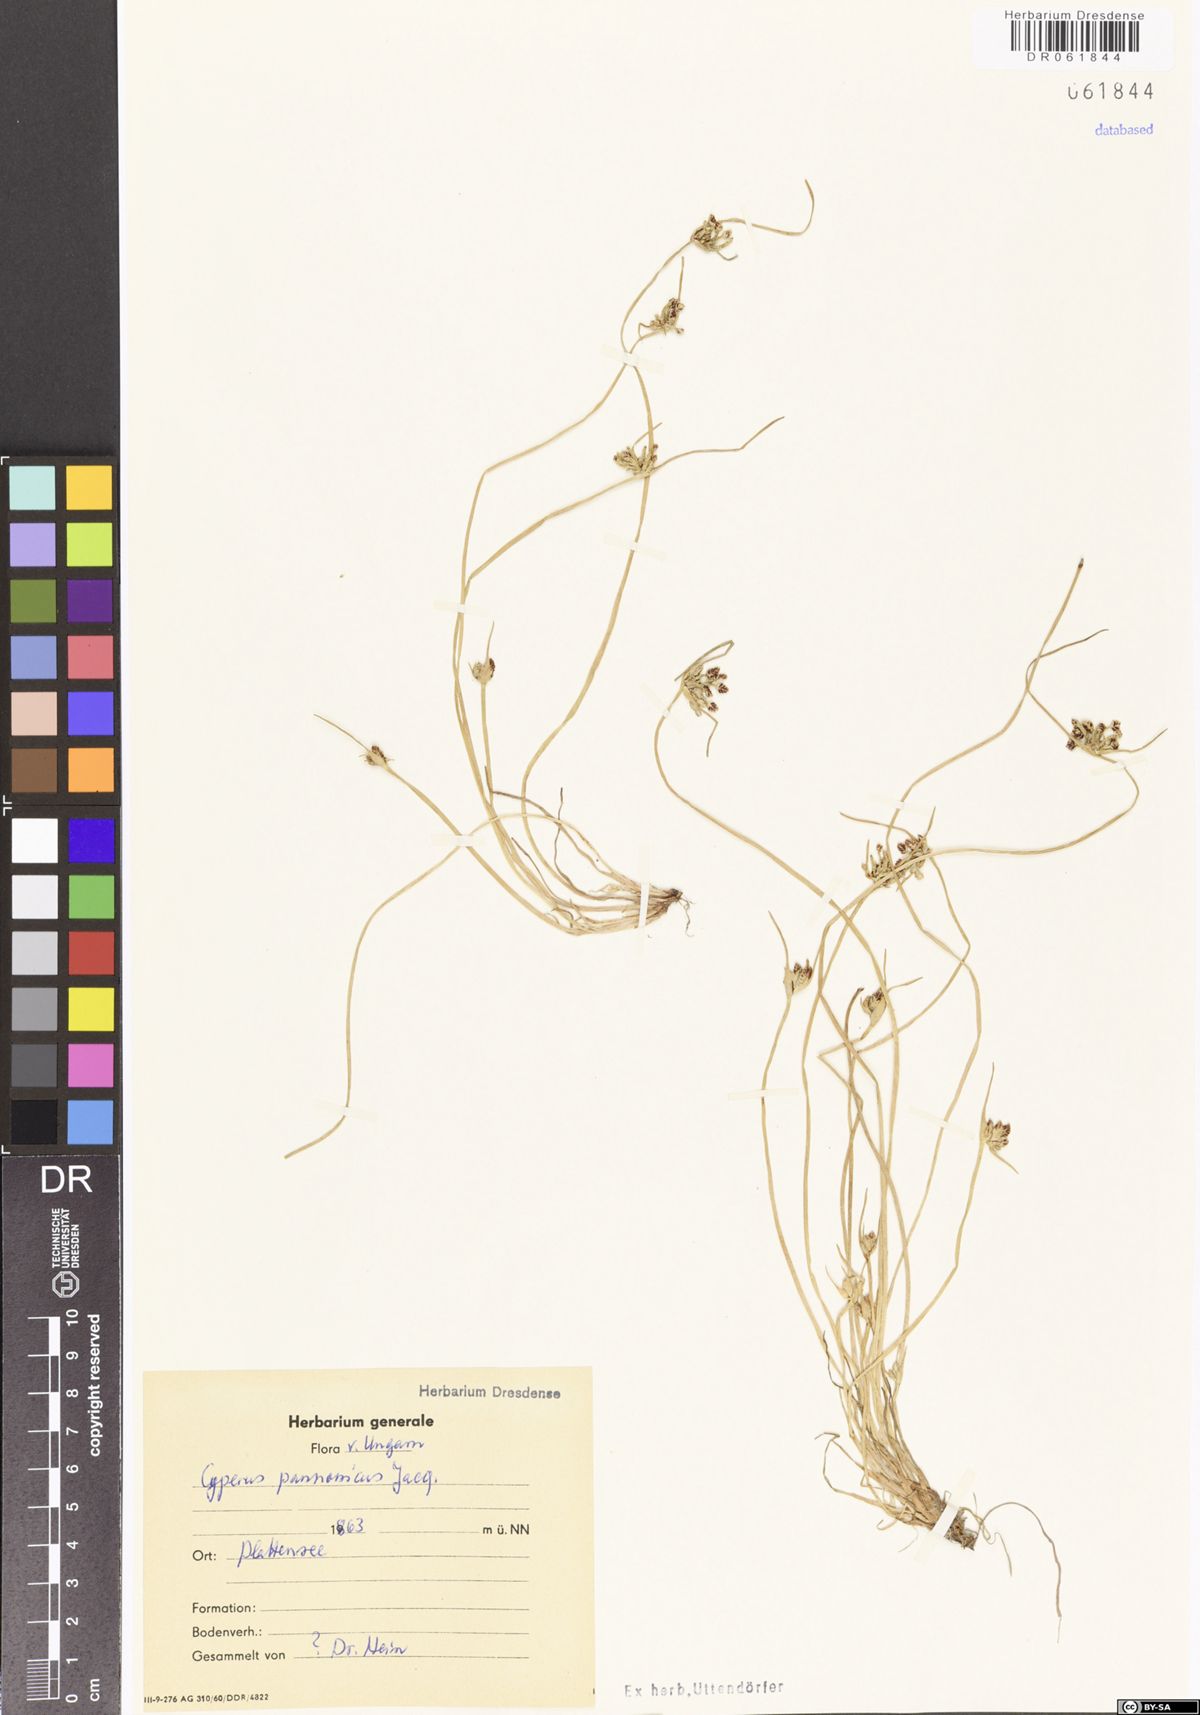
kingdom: Plantae
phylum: Tracheophyta
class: Liliopsida
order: Poales
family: Cyperaceae
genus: Cyperus
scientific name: Cyperus pannonicus
